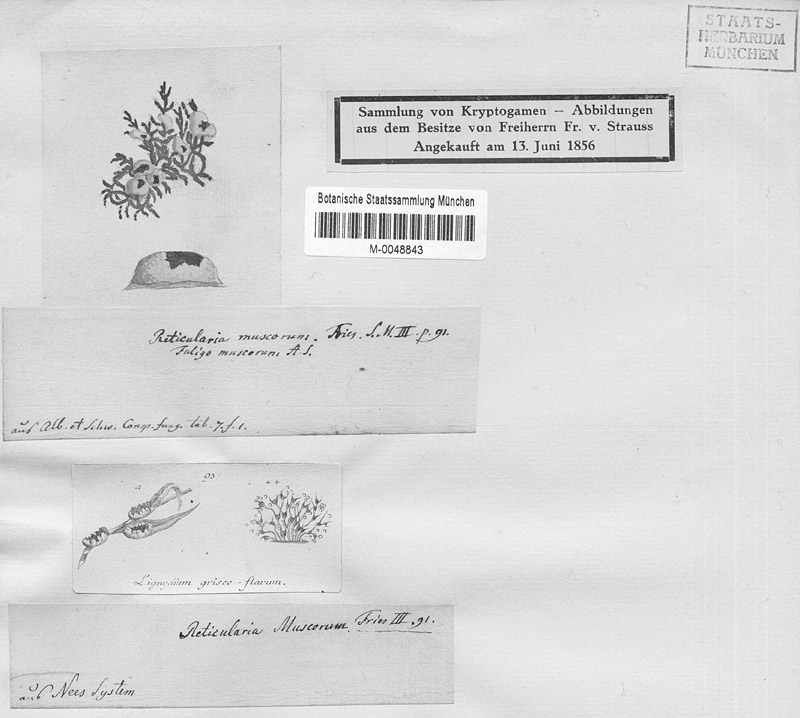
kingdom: Protozoa
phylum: Mycetozoa
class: Myxomycetes
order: Physarales
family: Physaraceae
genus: Fuligo
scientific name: Fuligo muscorum
